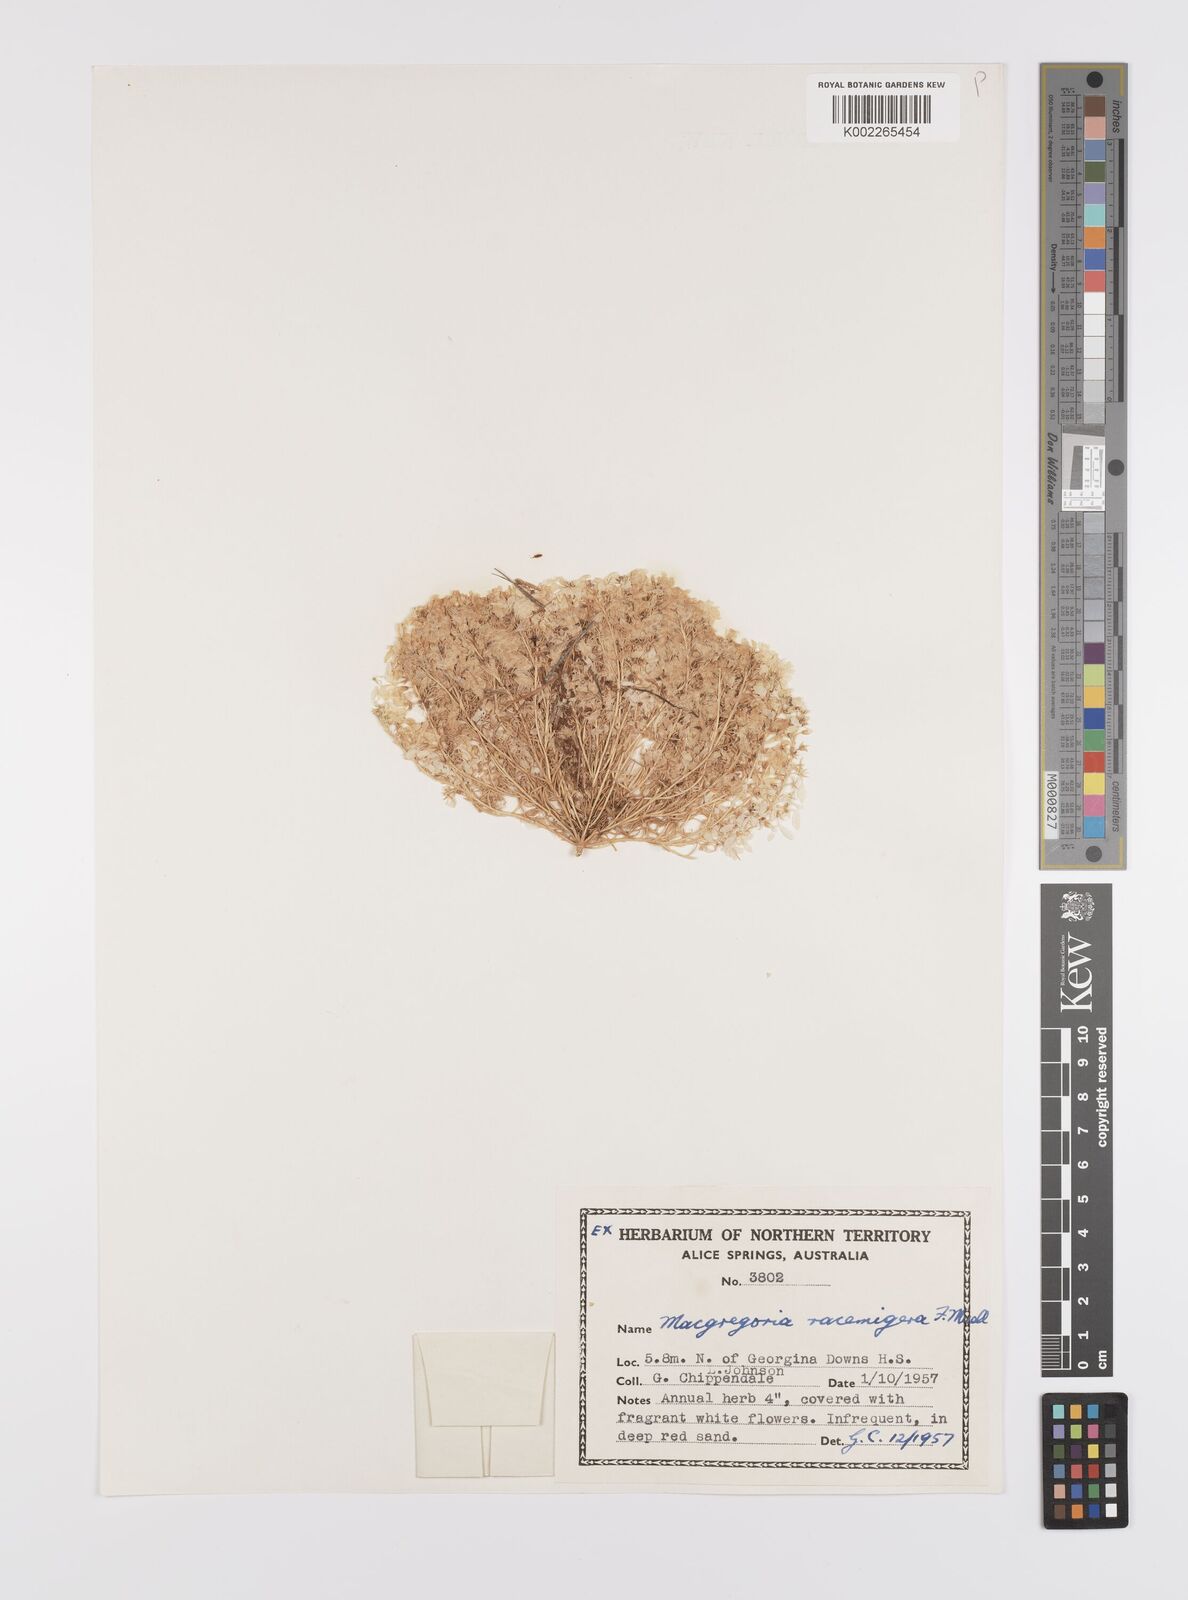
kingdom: Plantae
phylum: Tracheophyta
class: Magnoliopsida
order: Celastrales
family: Celastraceae
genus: Macgregoria
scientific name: Macgregoria racemigera
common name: Carpet-of-snow
